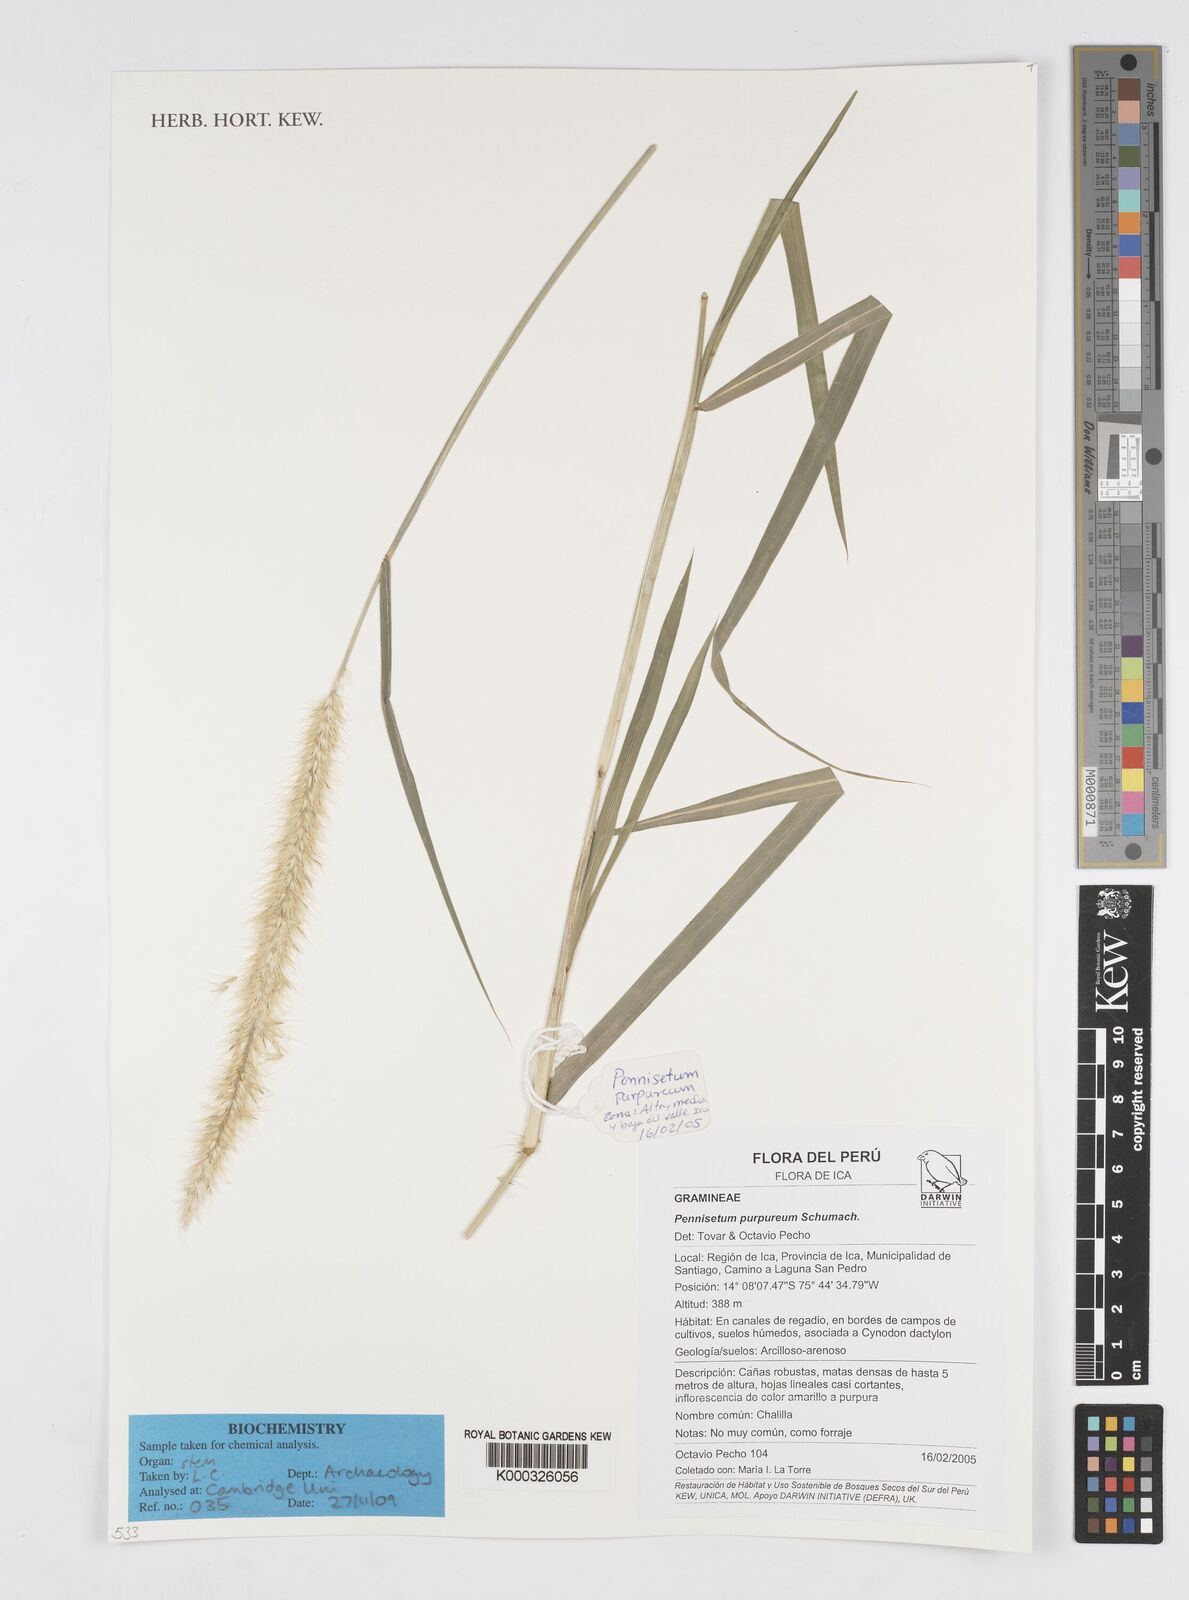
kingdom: Plantae
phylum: Tracheophyta
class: Liliopsida
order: Poales
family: Poaceae
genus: Cenchrus
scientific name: Cenchrus purpureus
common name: Elephant grass
